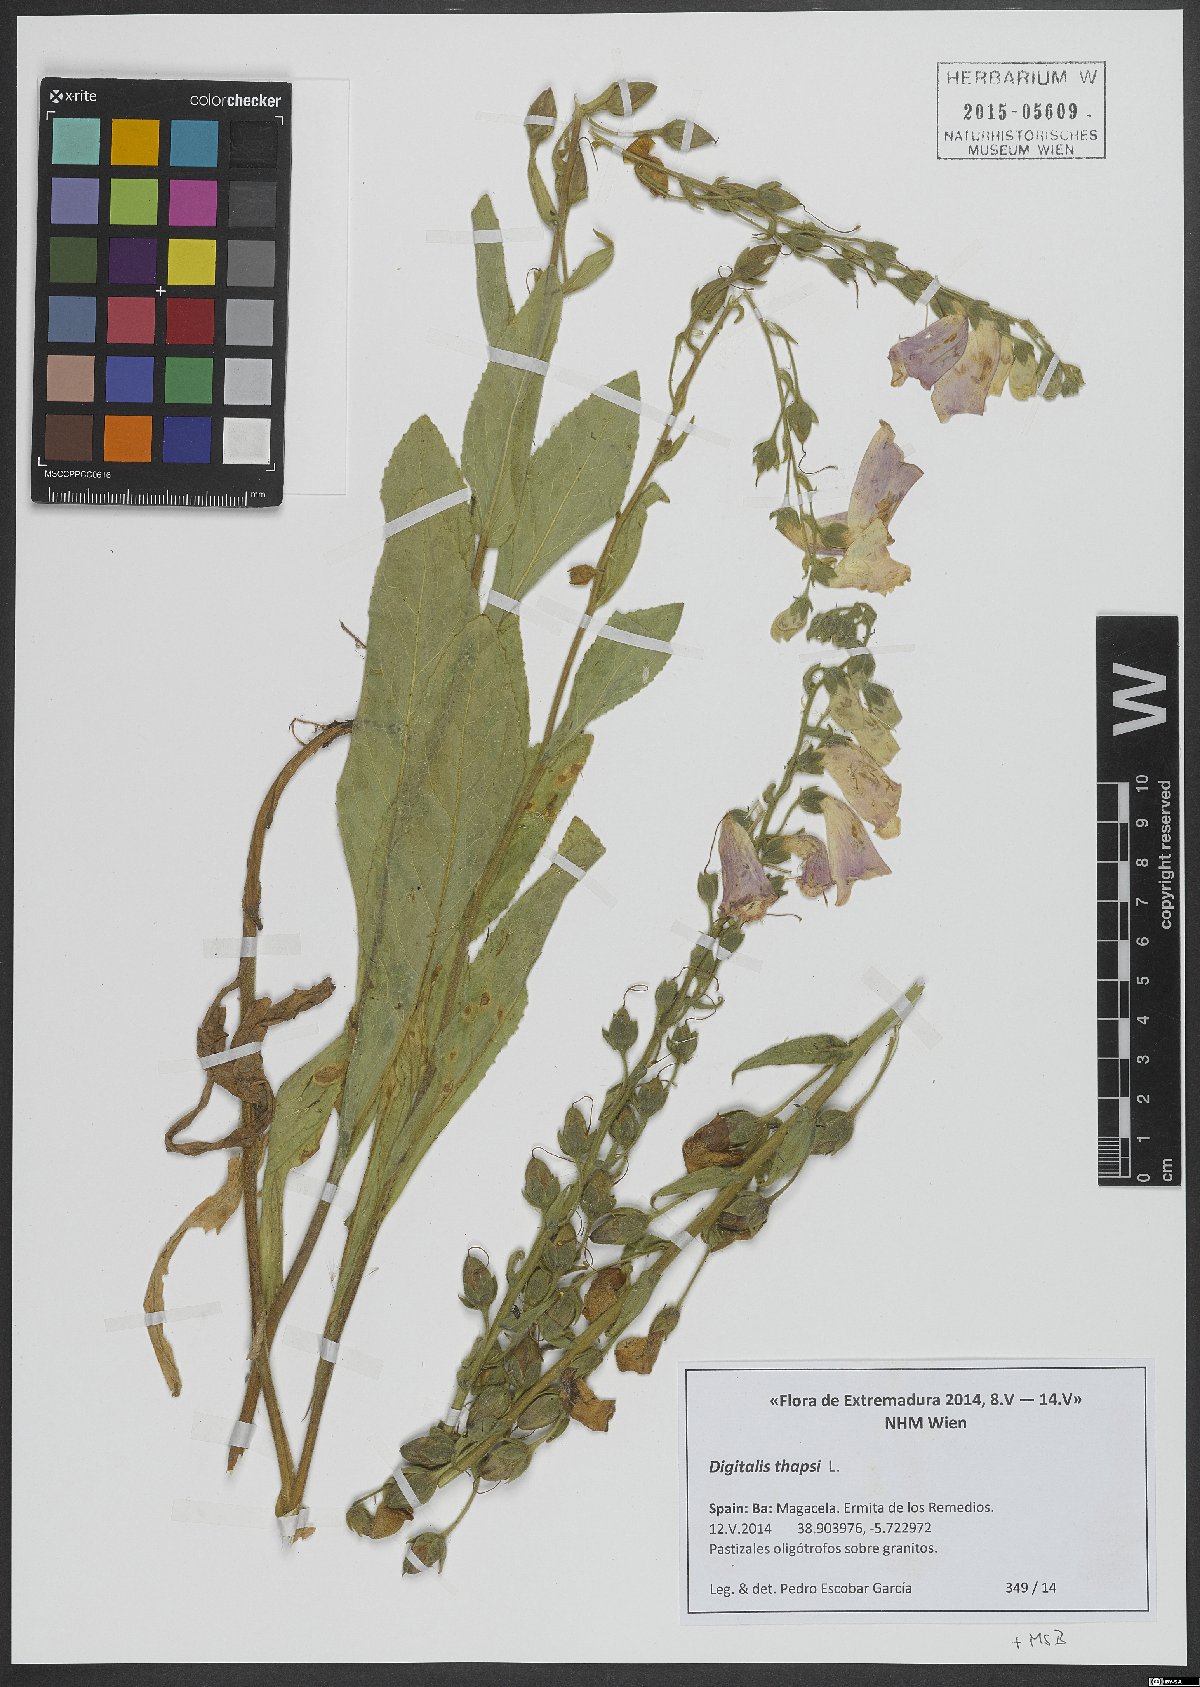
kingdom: Plantae
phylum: Tracheophyta
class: Magnoliopsida
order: Lamiales
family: Plantaginaceae
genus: Digitalis
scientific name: Digitalis thapsi
